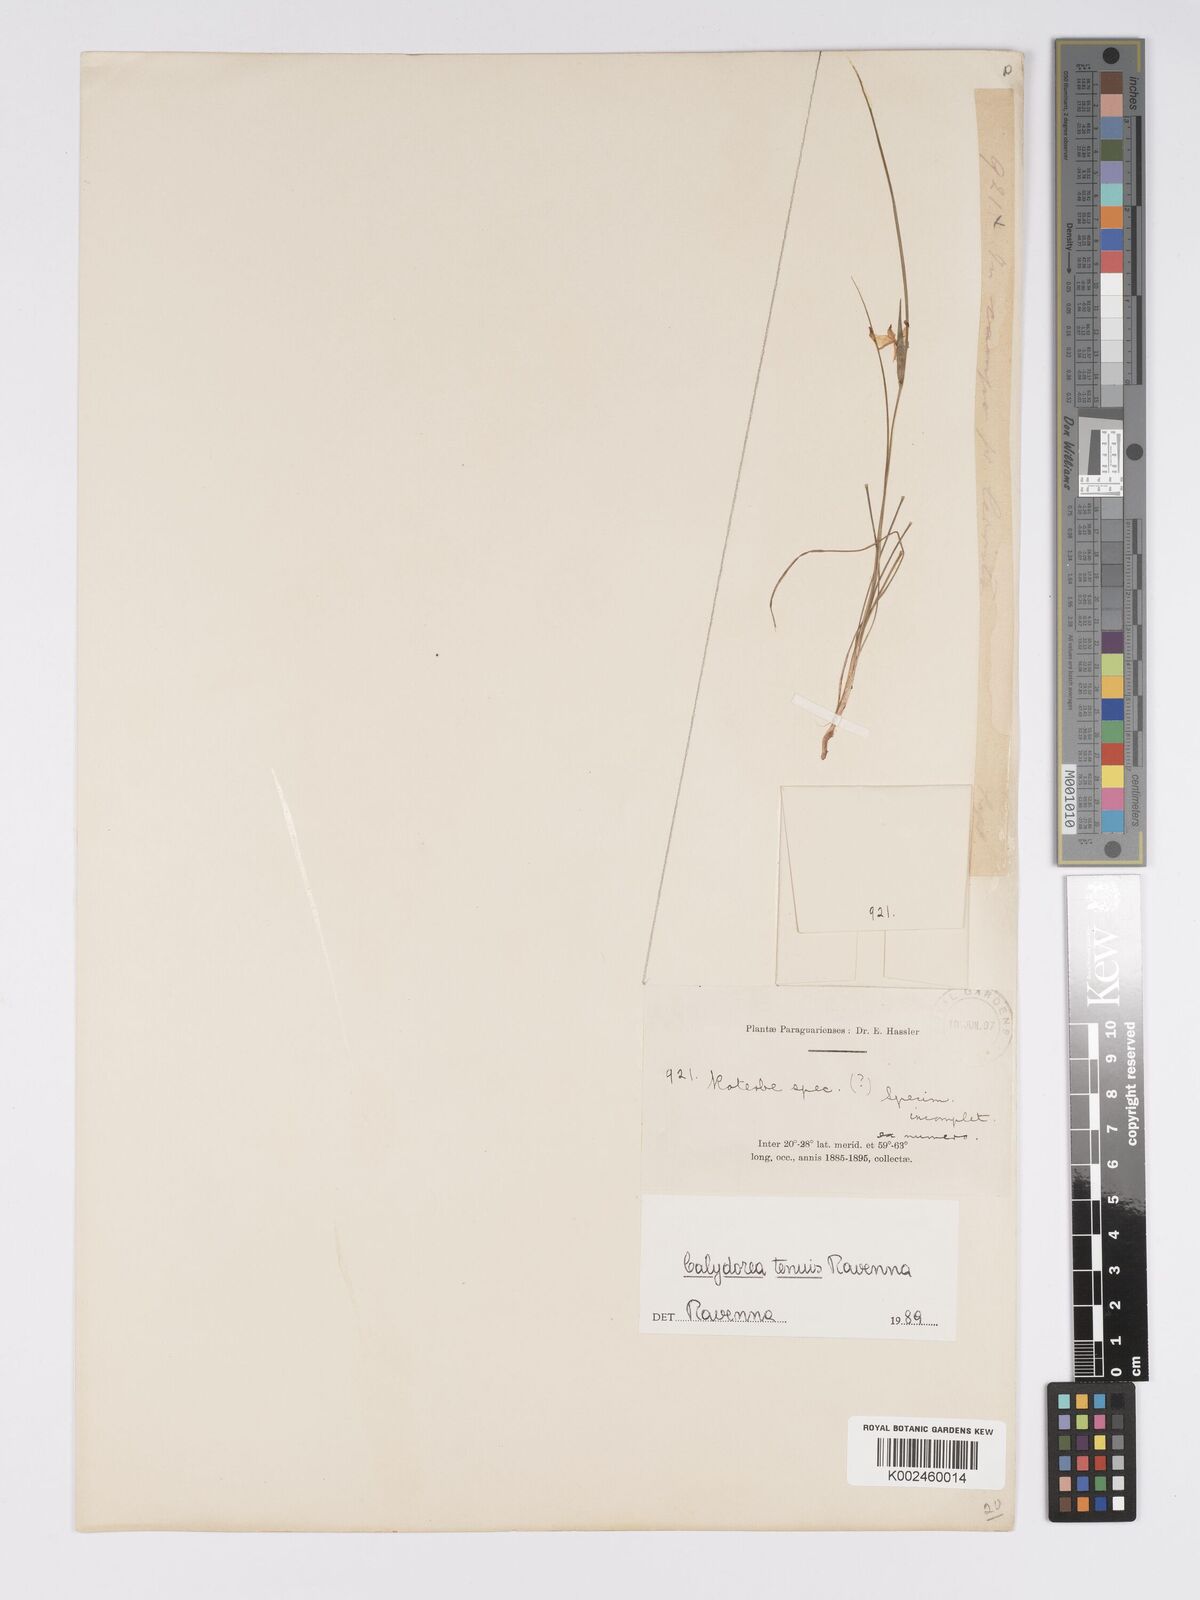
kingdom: Plantae
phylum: Tracheophyta
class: Liliopsida
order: Asparagales
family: Iridaceae
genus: Calydorea
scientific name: Calydorea
